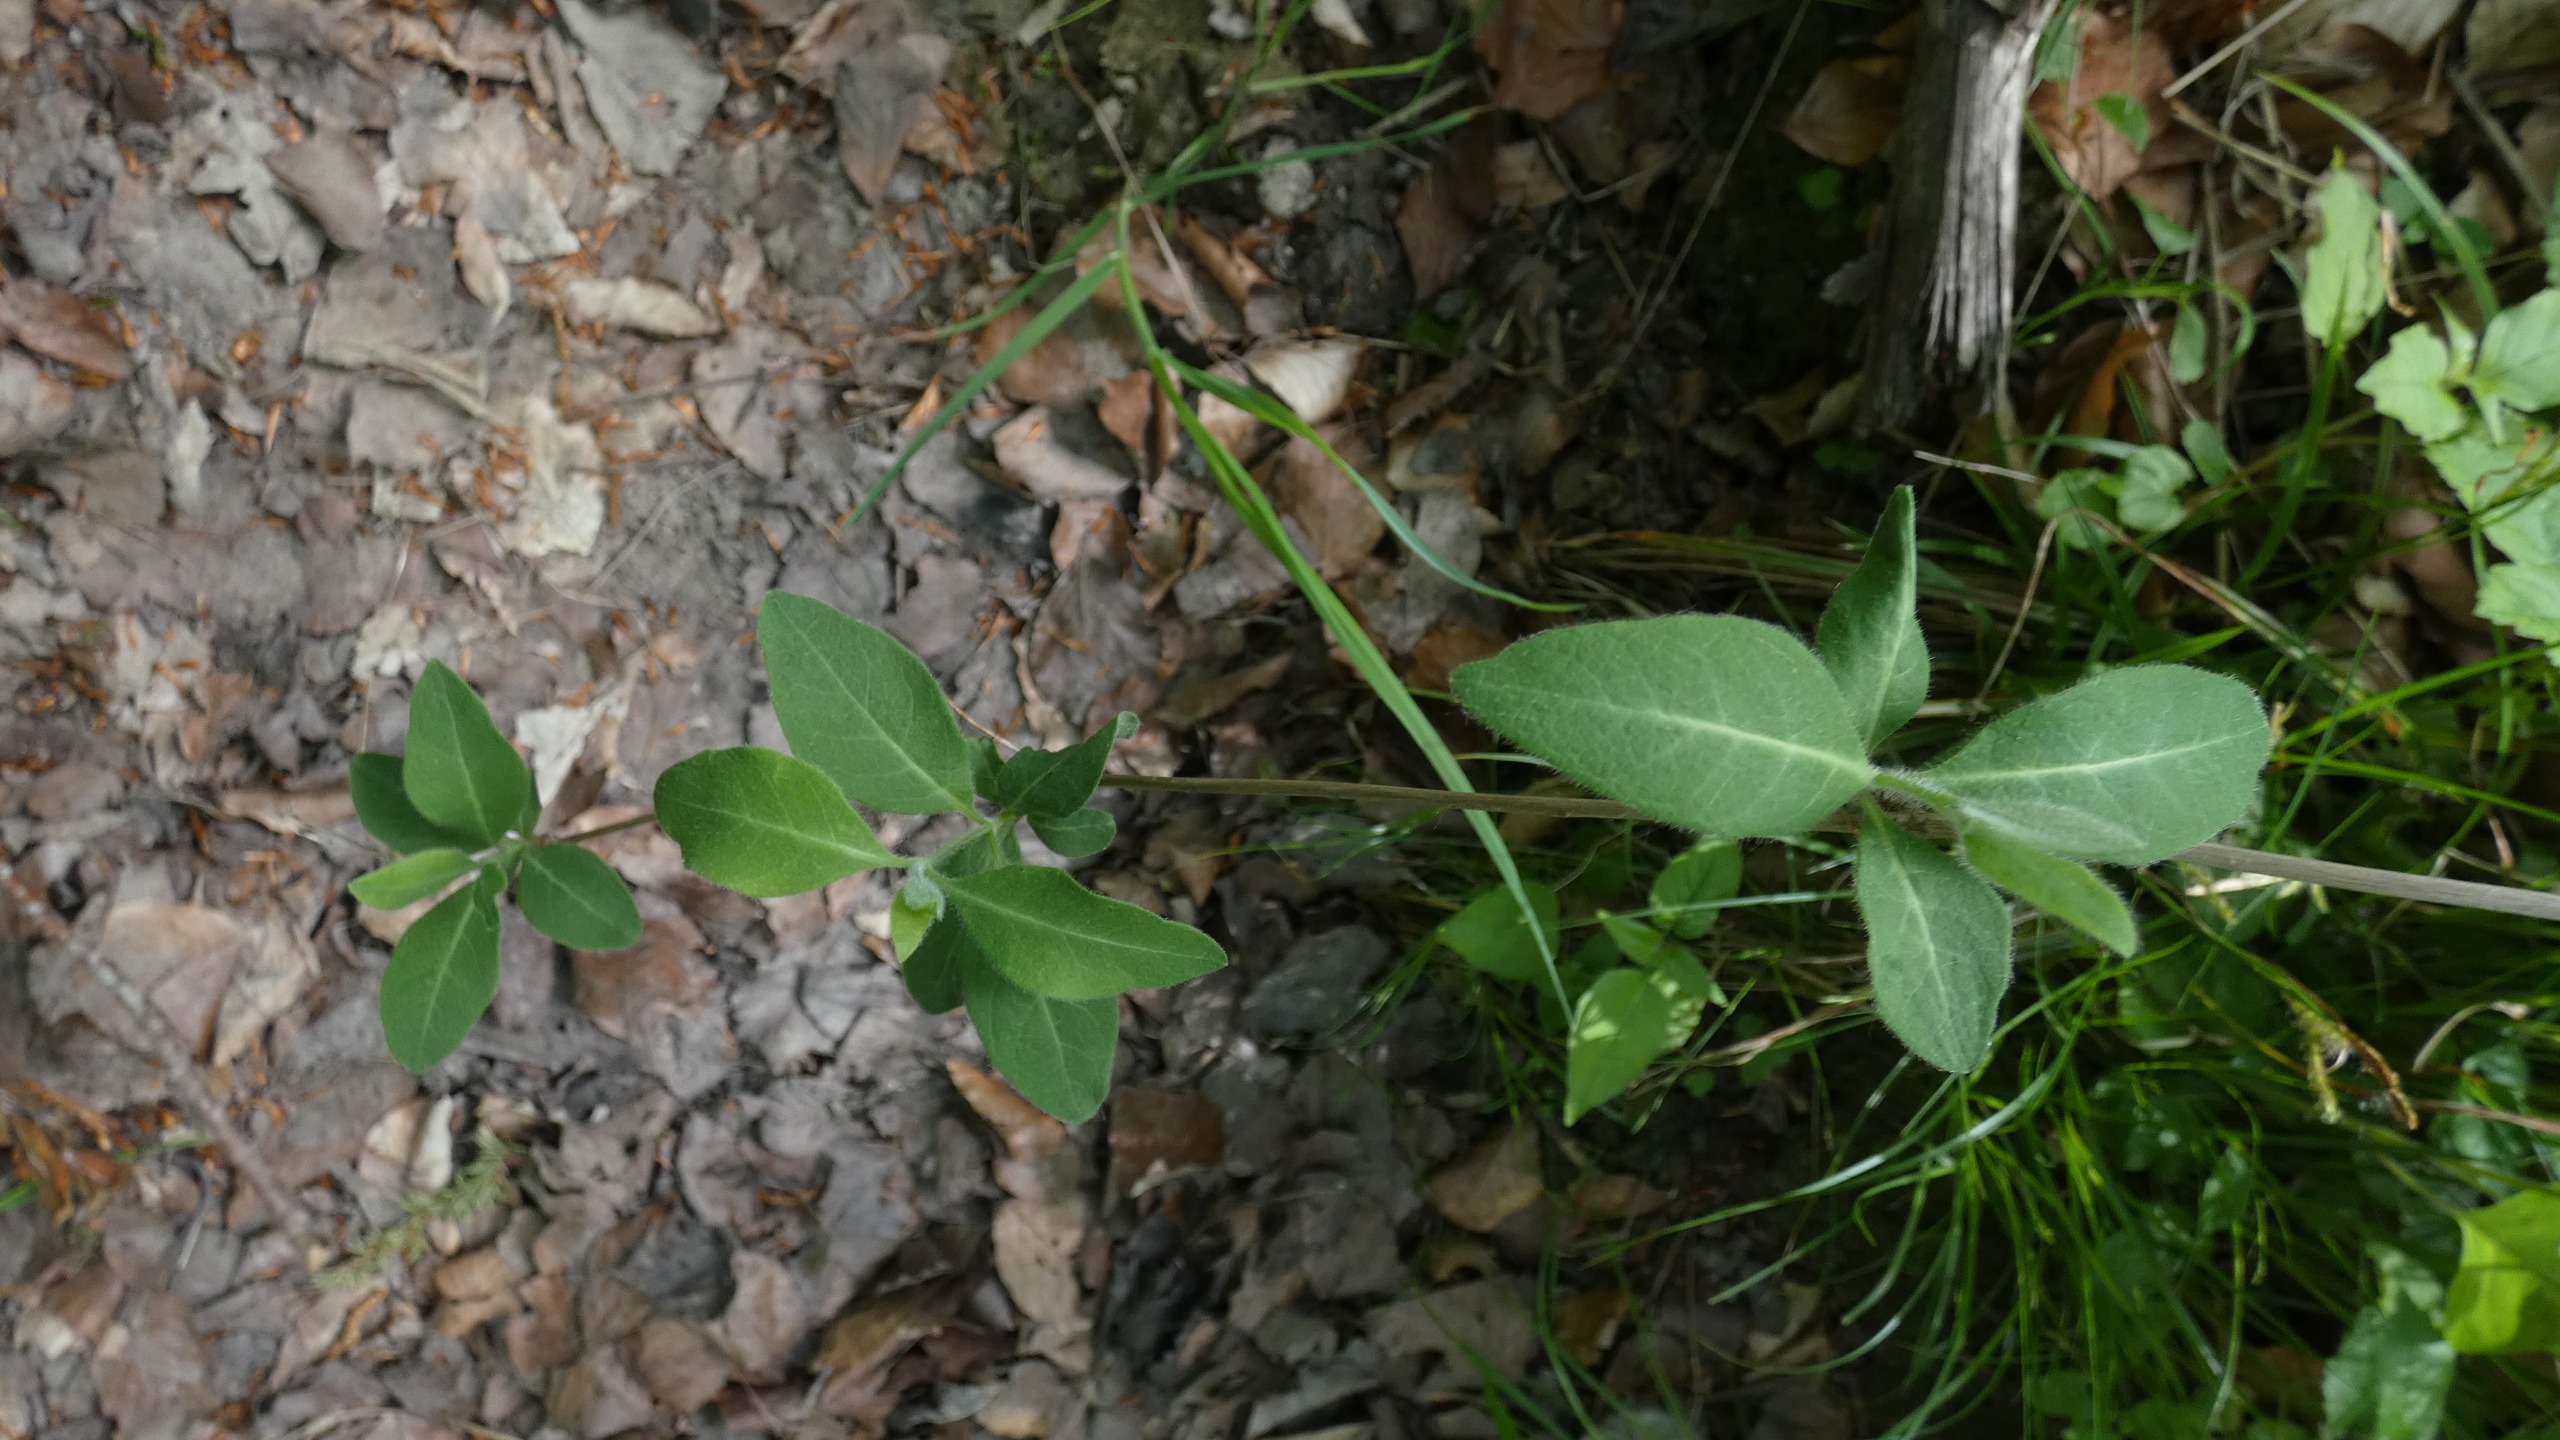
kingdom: Plantae
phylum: Tracheophyta
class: Magnoliopsida
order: Dipsacales
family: Caprifoliaceae
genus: Lonicera
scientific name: Lonicera periclymenum
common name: Almindelig gedeblad
